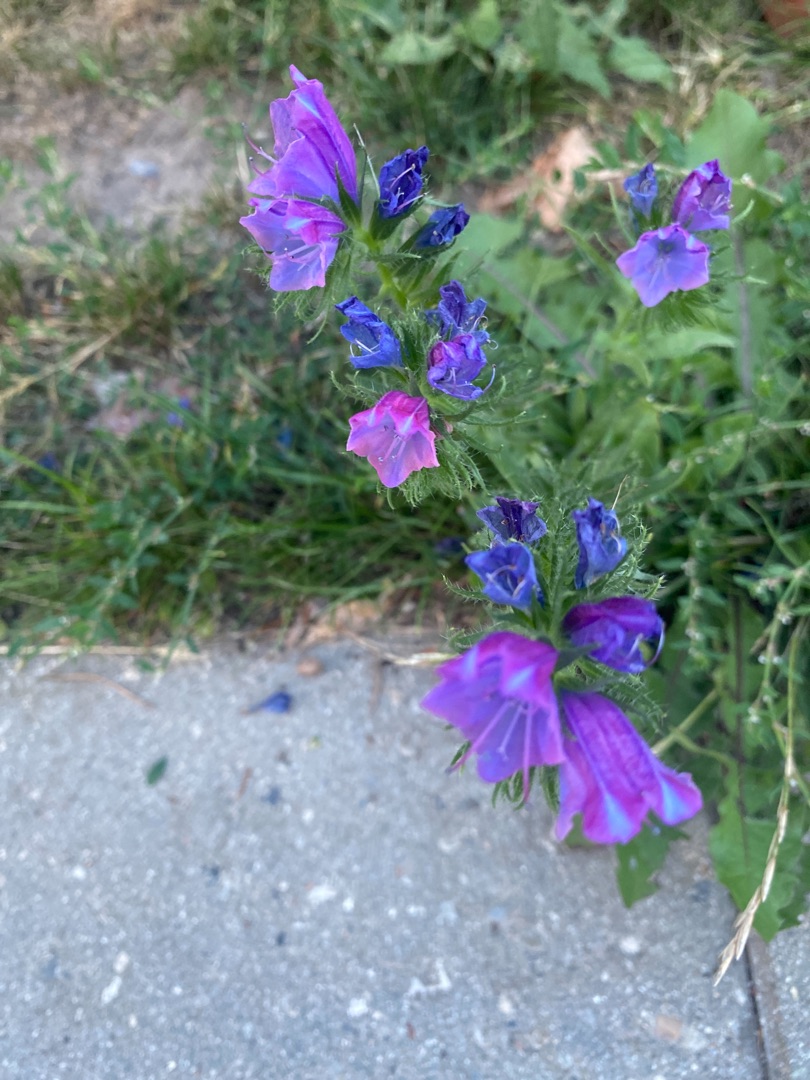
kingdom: Plantae
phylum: Tracheophyta
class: Magnoliopsida
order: Boraginales
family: Boraginaceae
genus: Echium
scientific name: Echium plantagineum
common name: Vejbred-slangehoved
